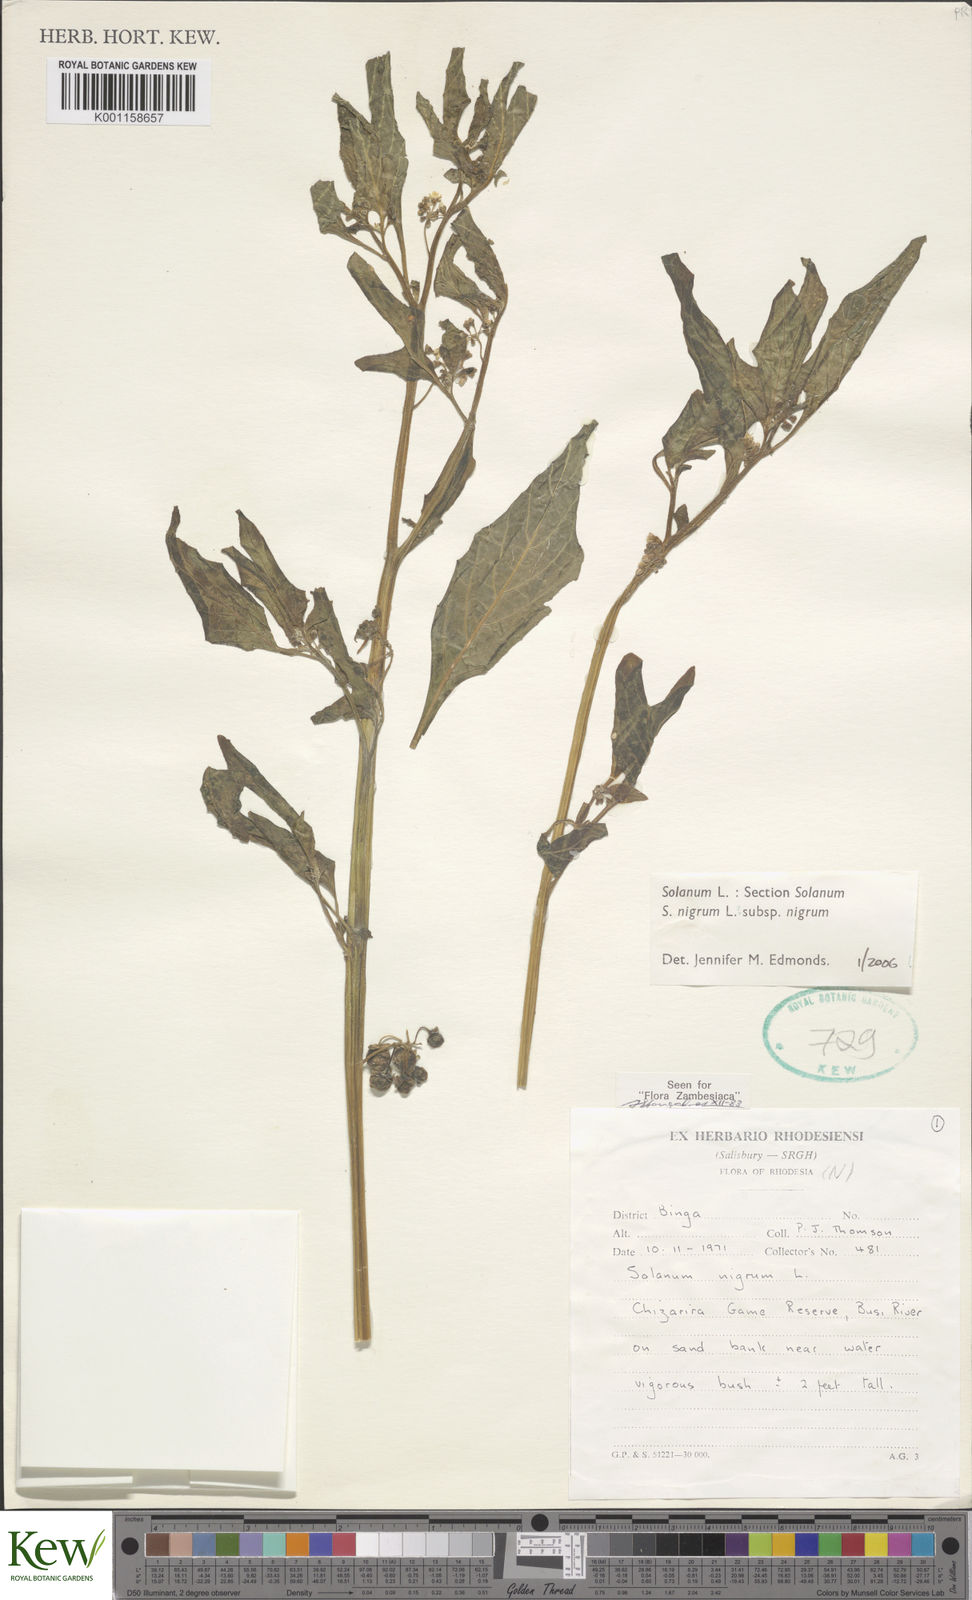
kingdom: Plantae
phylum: Tracheophyta
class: Magnoliopsida
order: Solanales
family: Solanaceae
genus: Solanum
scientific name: Solanum nigrum
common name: Black nightshade
